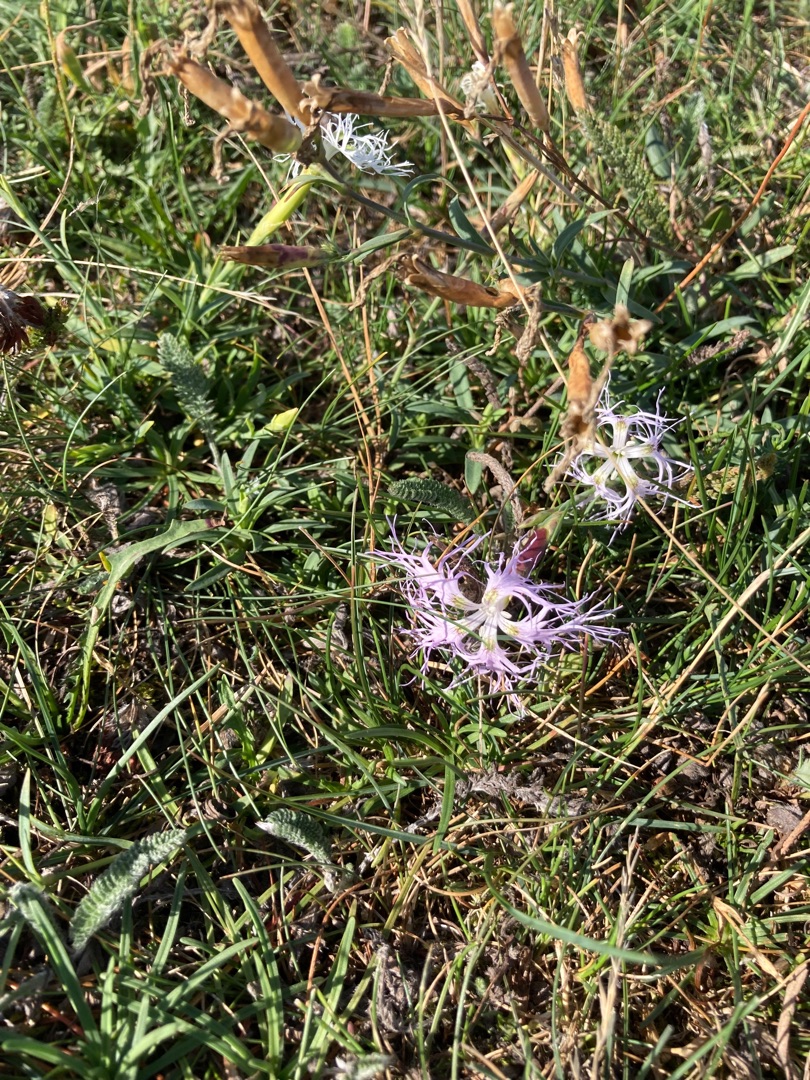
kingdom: Plantae
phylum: Tracheophyta
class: Magnoliopsida
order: Caryophyllales
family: Caryophyllaceae
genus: Dianthus
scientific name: Dianthus superbus
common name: Strand-nellike
